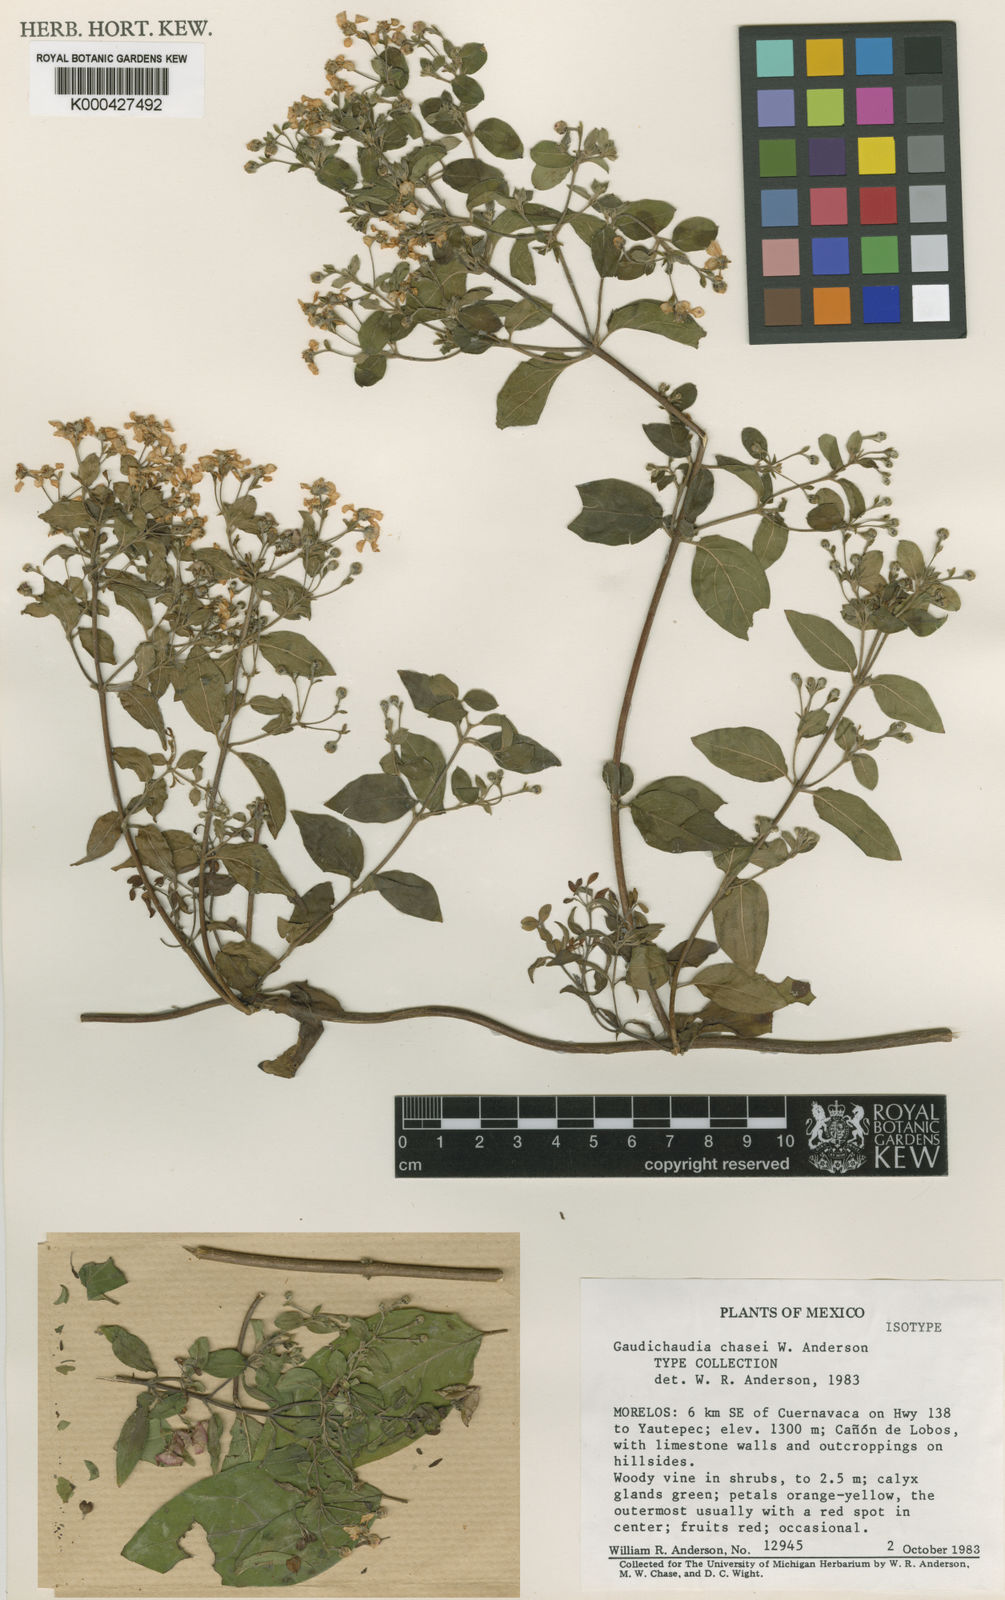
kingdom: Plantae
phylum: Tracheophyta
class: Magnoliopsida
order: Malpighiales
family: Malpighiaceae
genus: Gaudichaudia
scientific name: Gaudichaudia chasei
